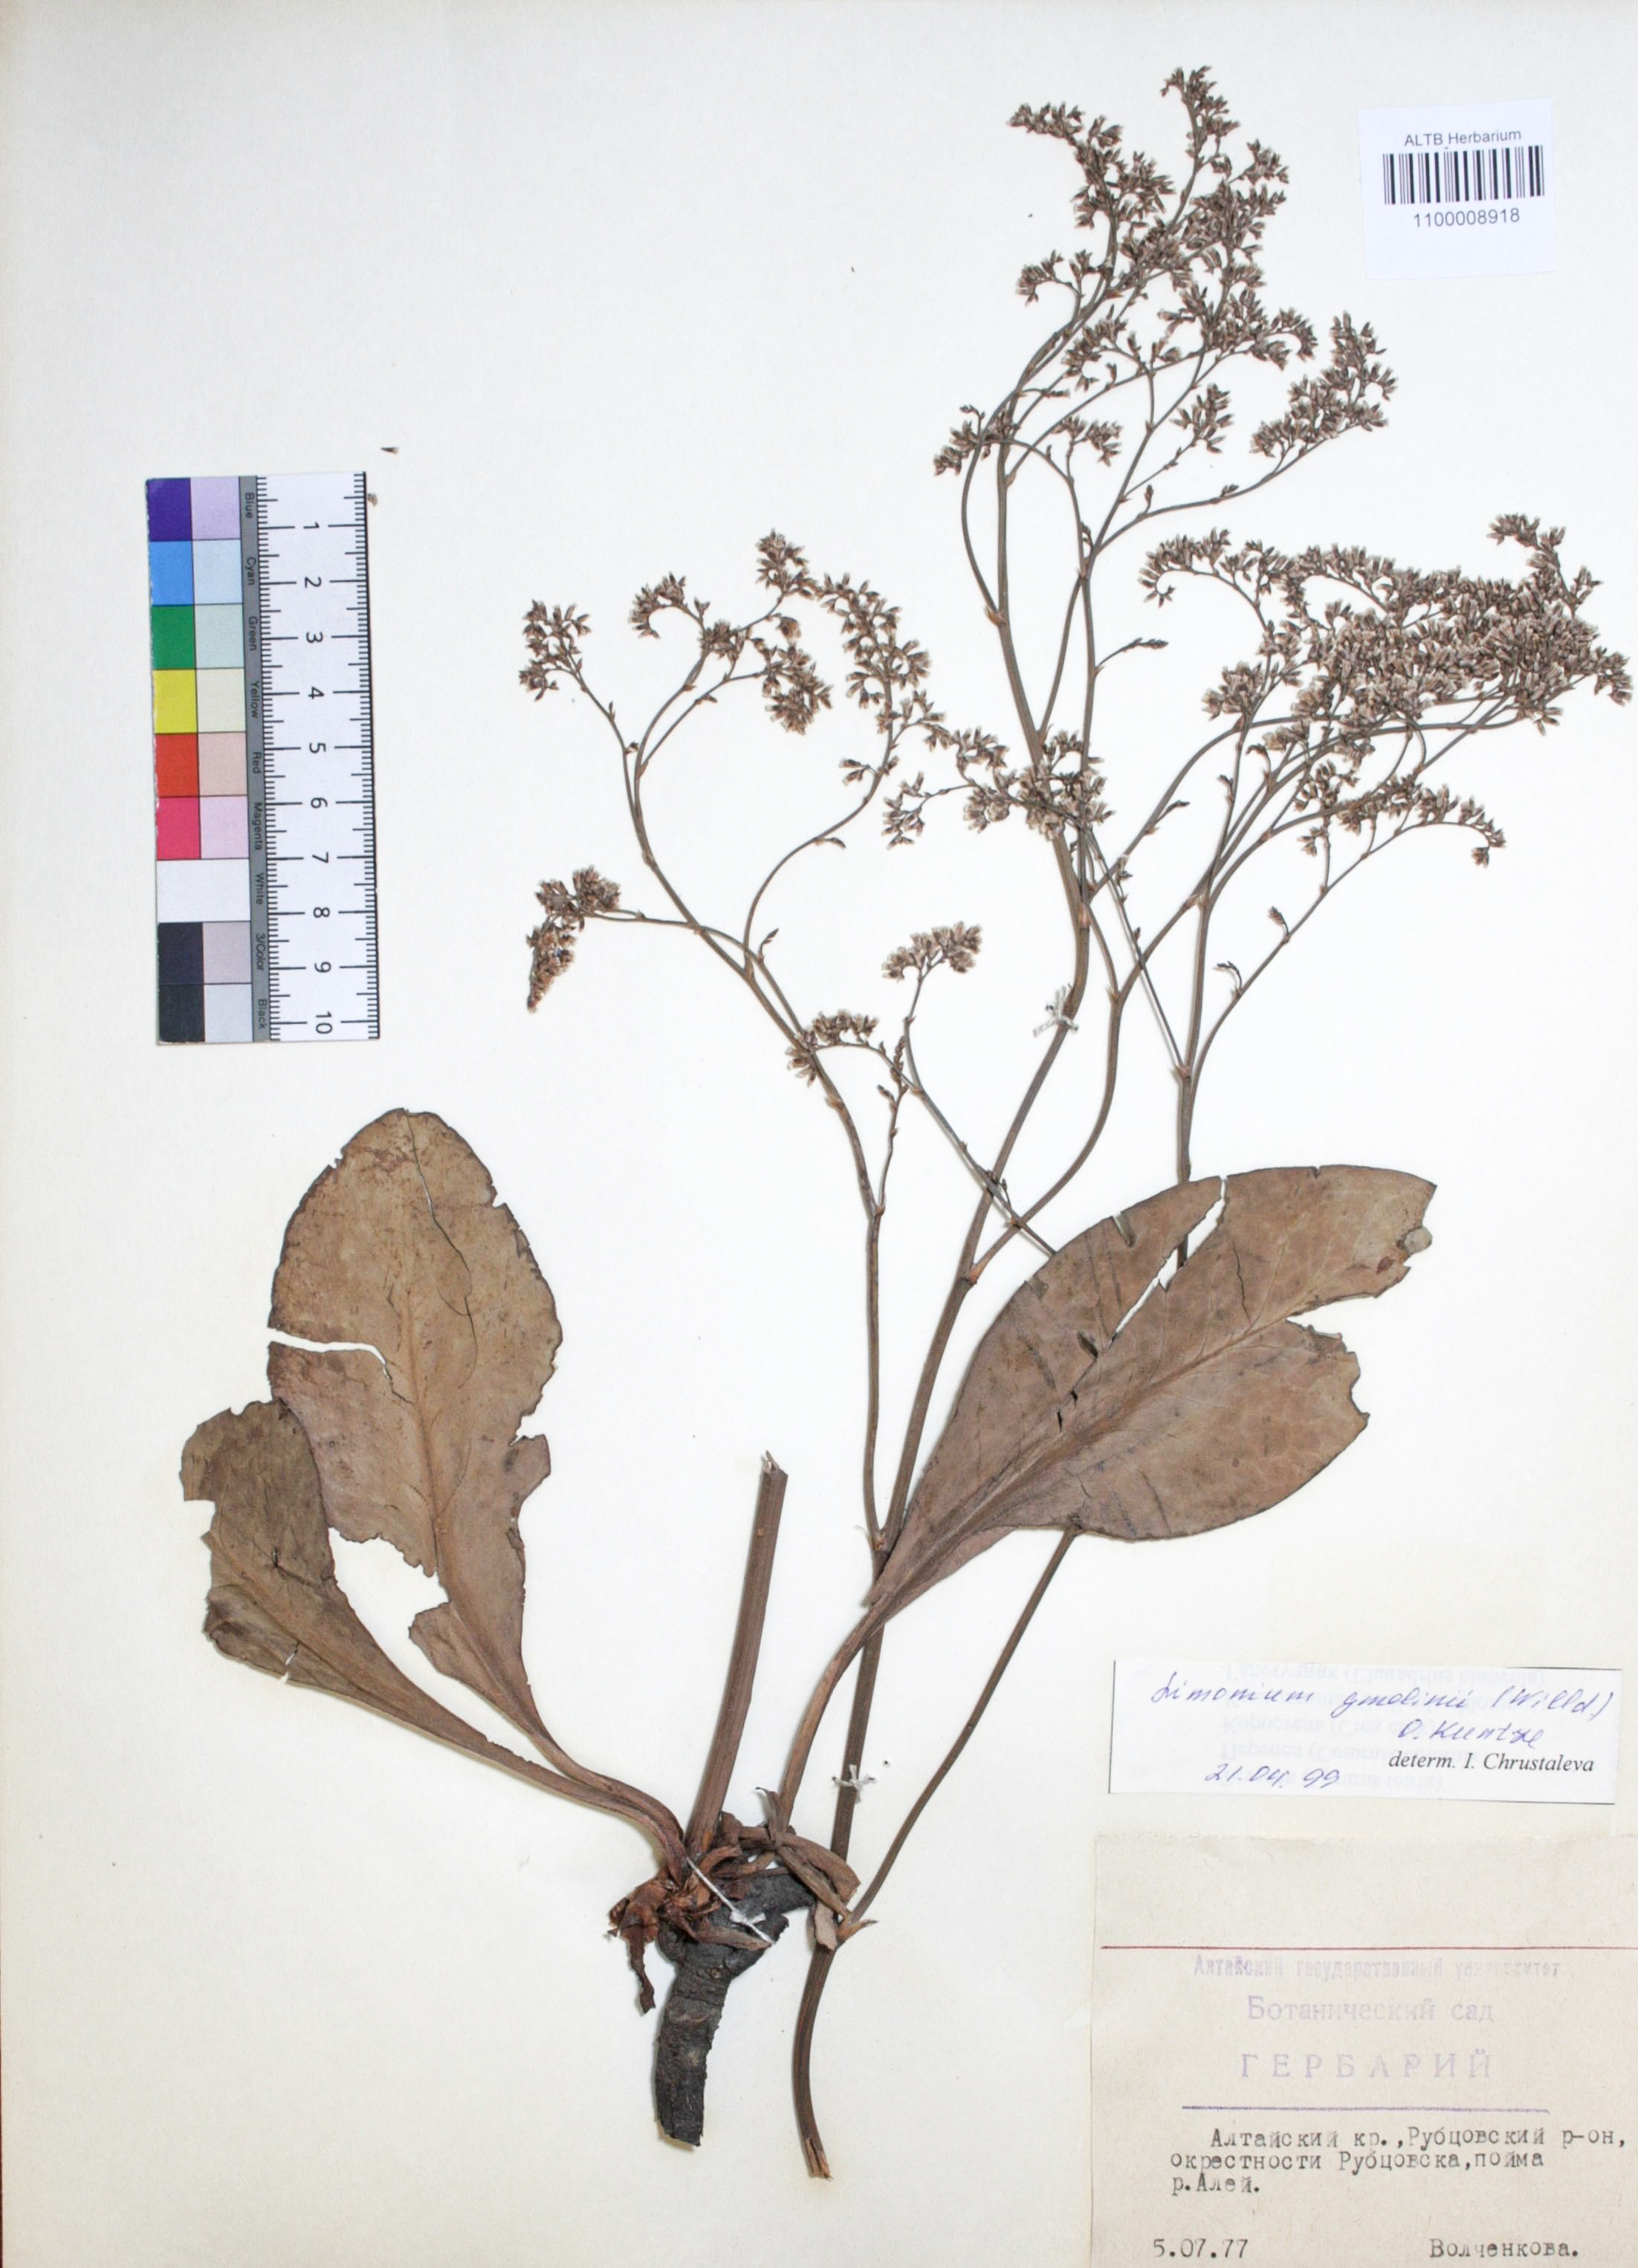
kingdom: Plantae
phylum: Tracheophyta
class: Magnoliopsida
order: Caryophyllales
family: Plumbaginaceae
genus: Limonium
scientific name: Limonium gmelini
